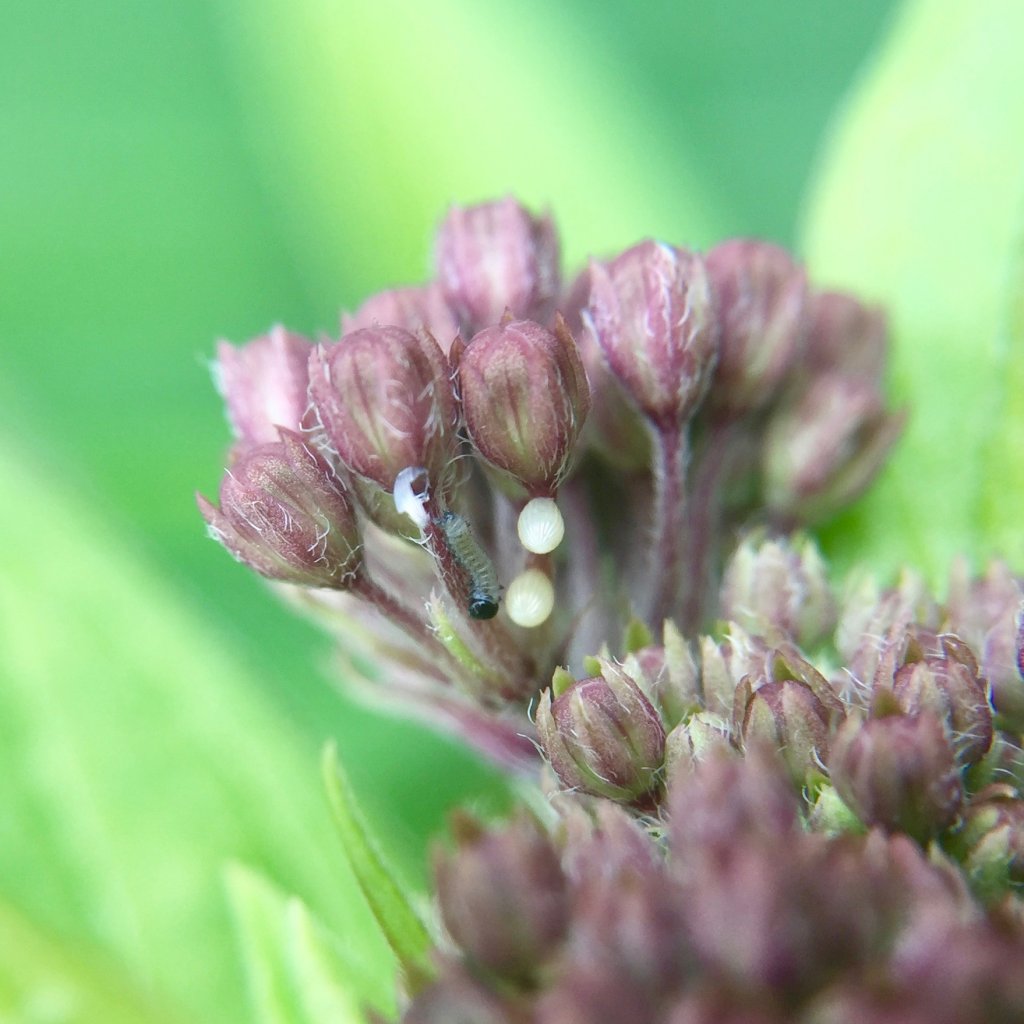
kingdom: Animalia
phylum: Arthropoda
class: Insecta
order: Lepidoptera
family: Nymphalidae
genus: Danaus
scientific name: Danaus plexippus
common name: Monarch
